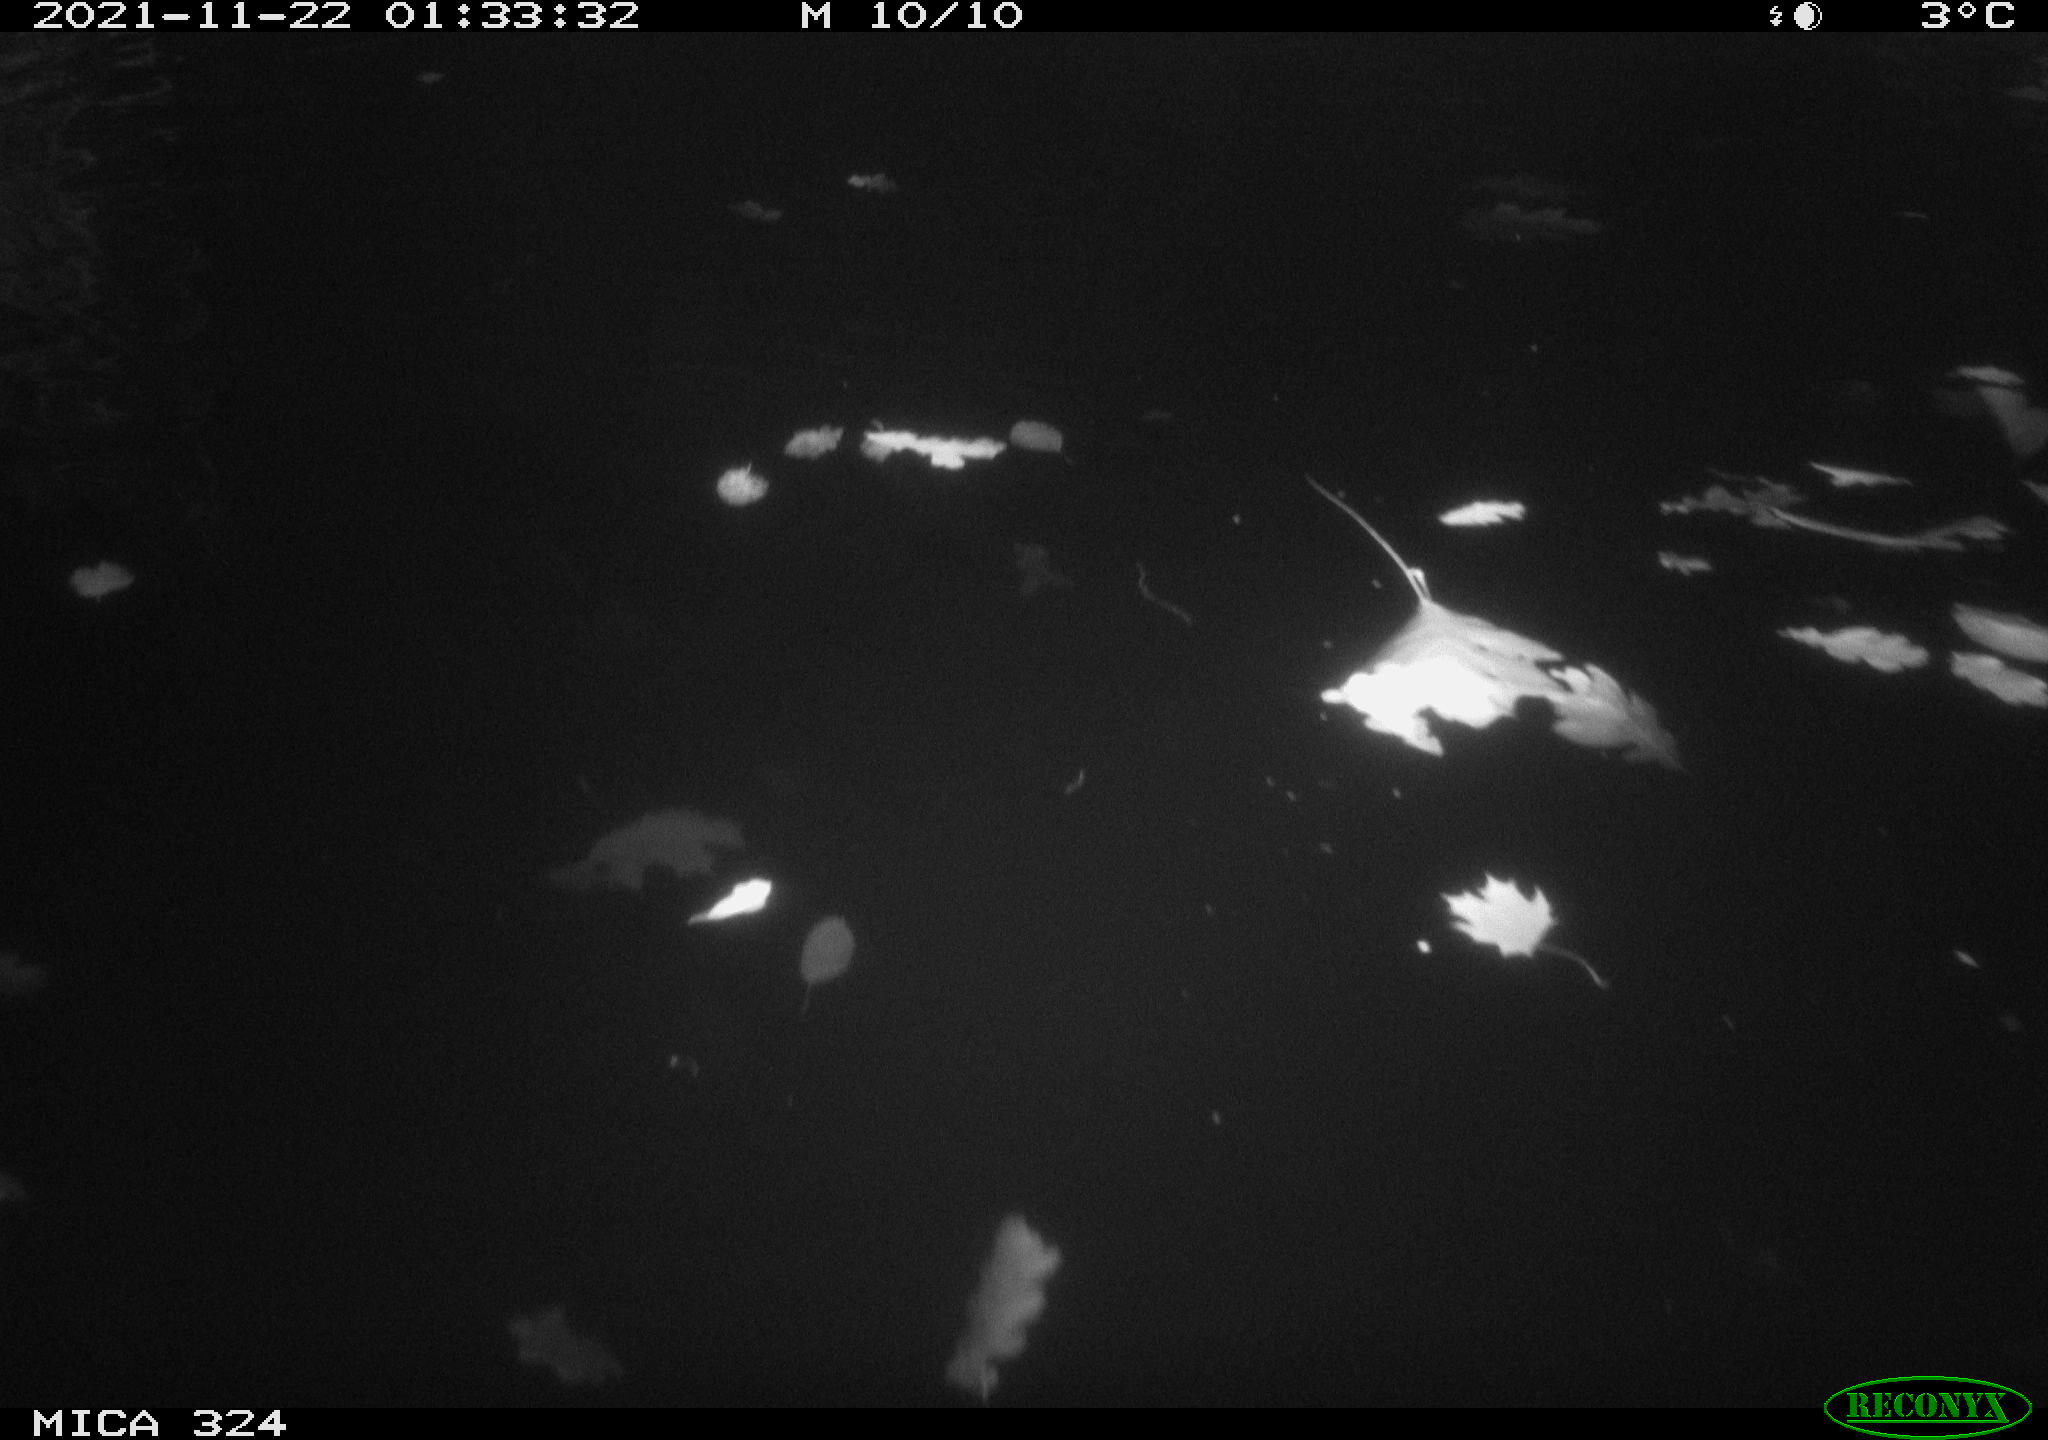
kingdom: Animalia
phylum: Chordata
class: Mammalia
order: Rodentia
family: Cricetidae
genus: Ondatra
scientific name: Ondatra zibethicus
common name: Muskrat
